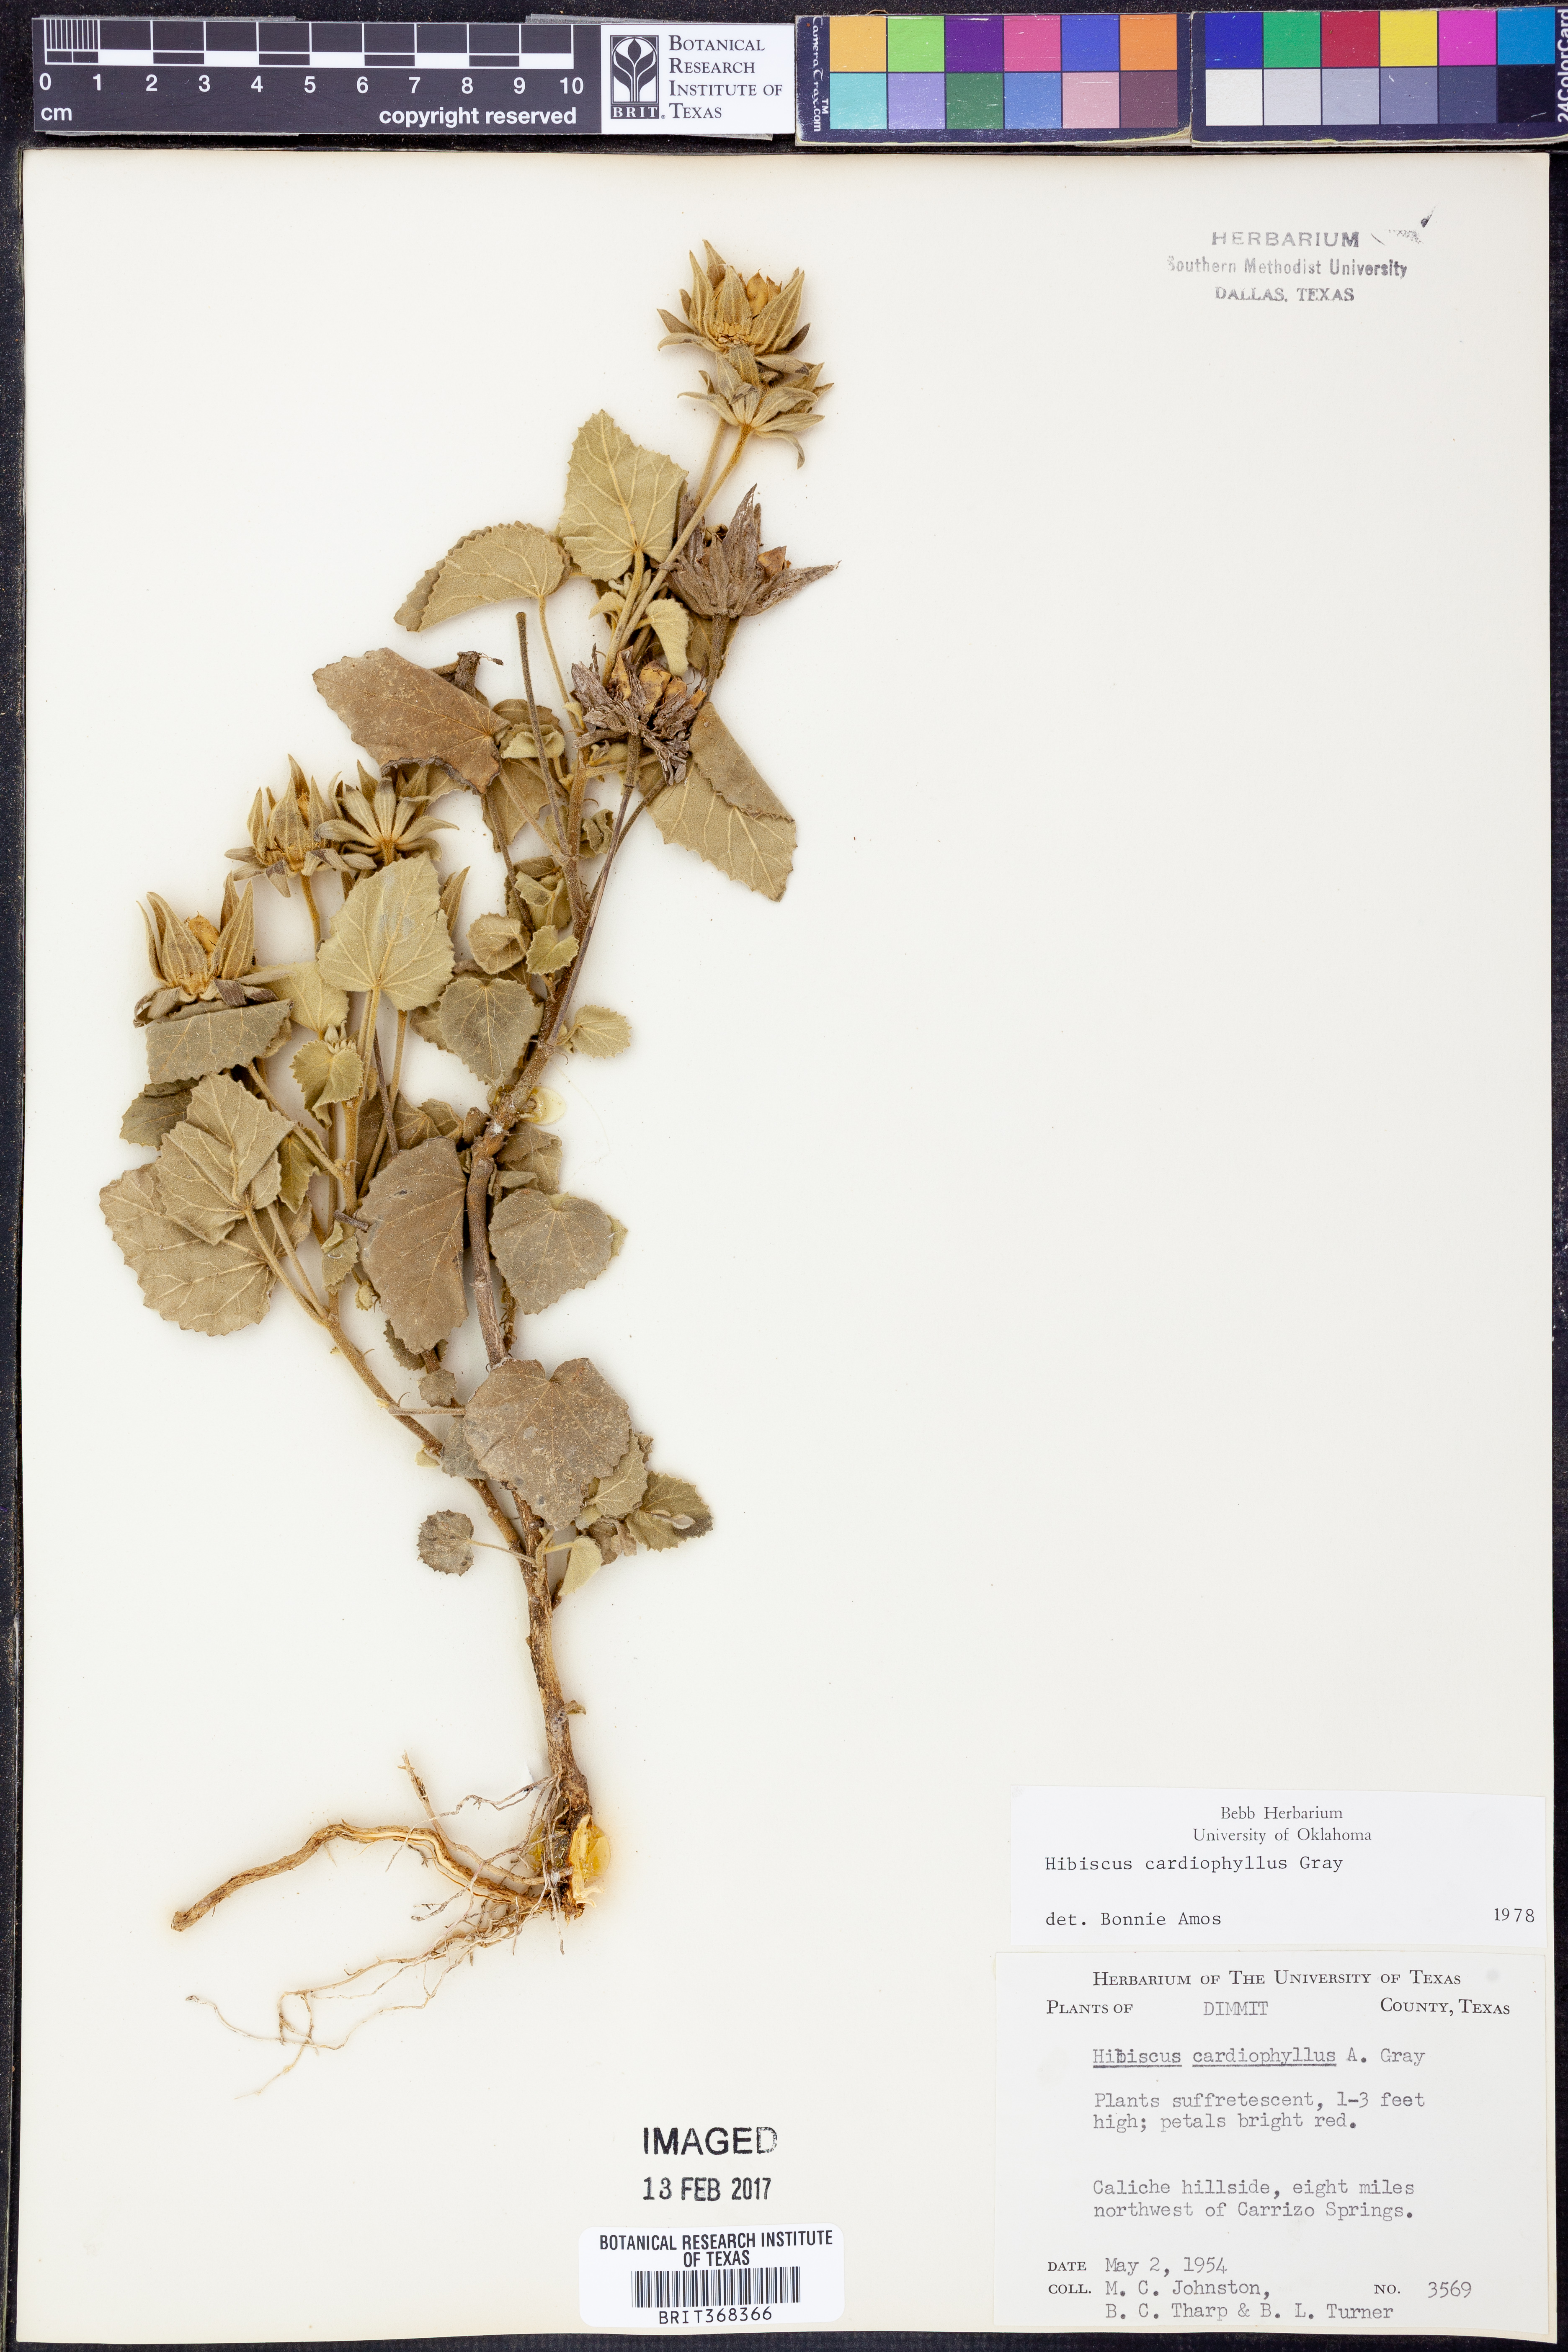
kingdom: Plantae
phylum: Tracheophyta
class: Magnoliopsida
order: Malvales
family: Malvaceae
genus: Abelmoschus
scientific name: Abelmoschus moschatus
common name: Musk okra
